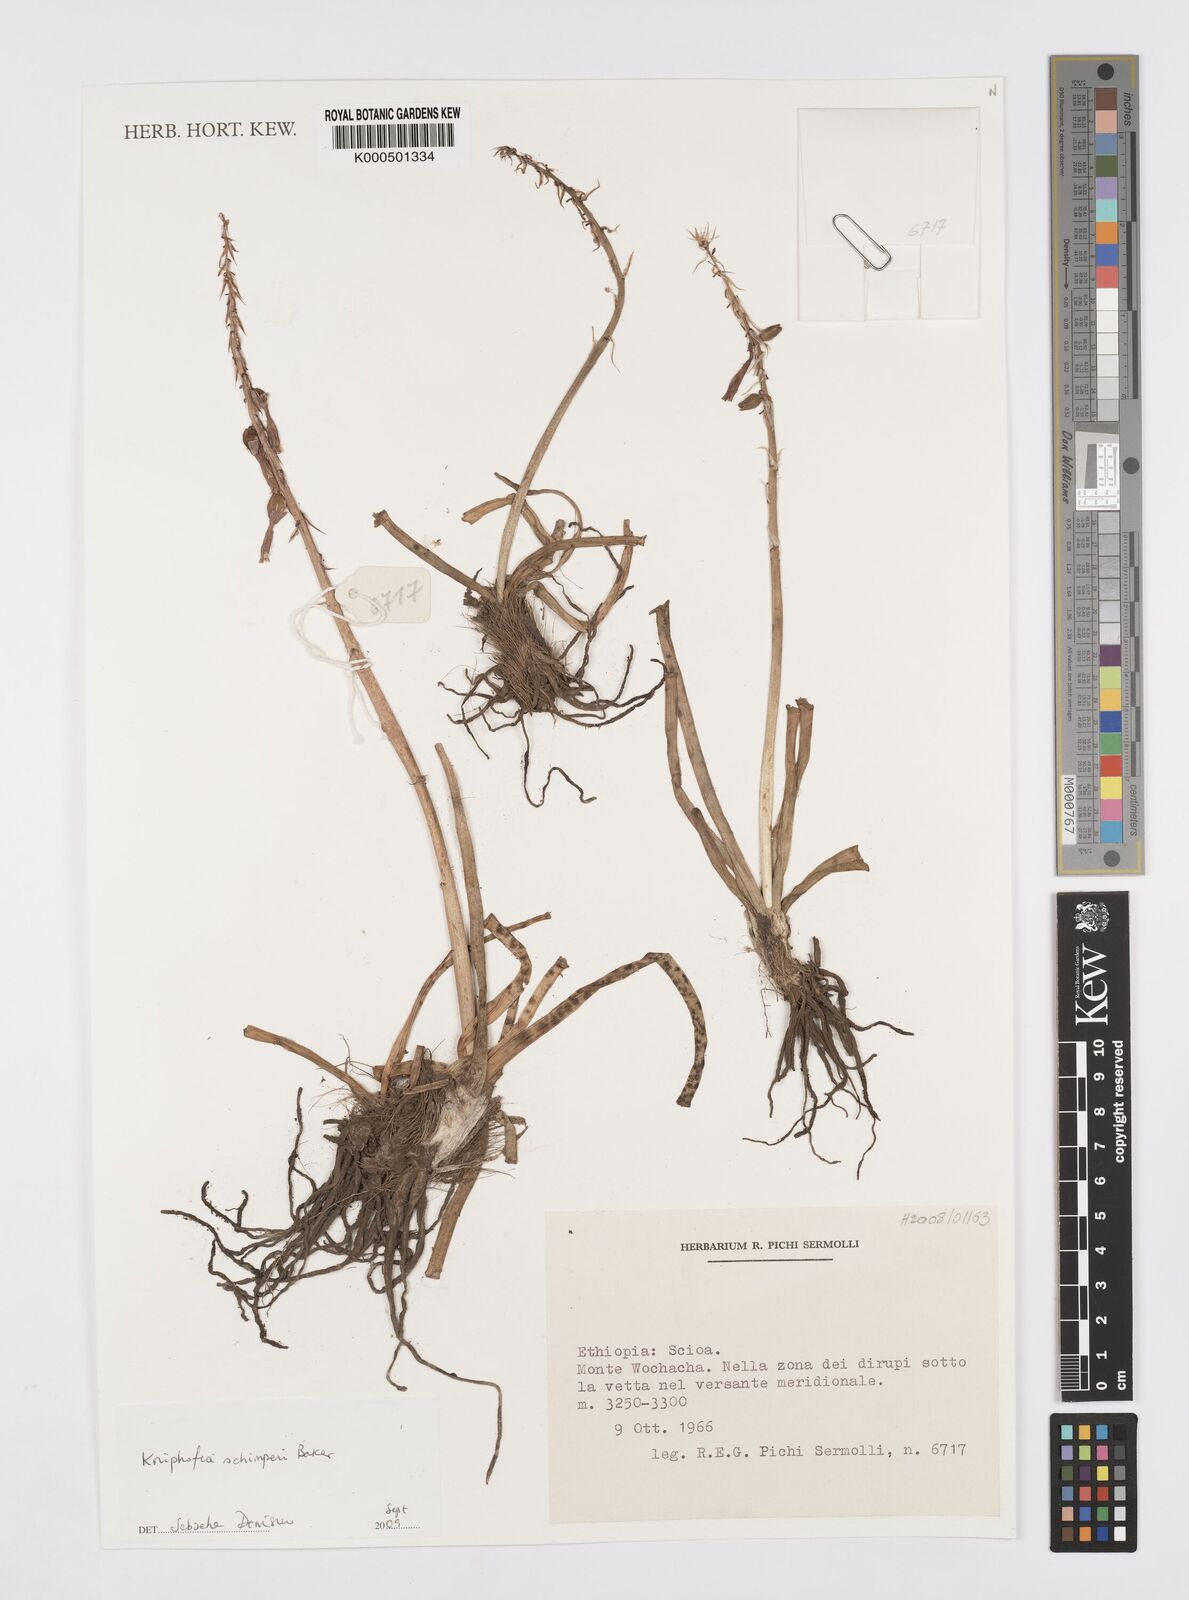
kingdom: Plantae
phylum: Tracheophyta
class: Liliopsida
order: Asparagales
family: Asphodelaceae
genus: Kniphofia
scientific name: Kniphofia schimperi
